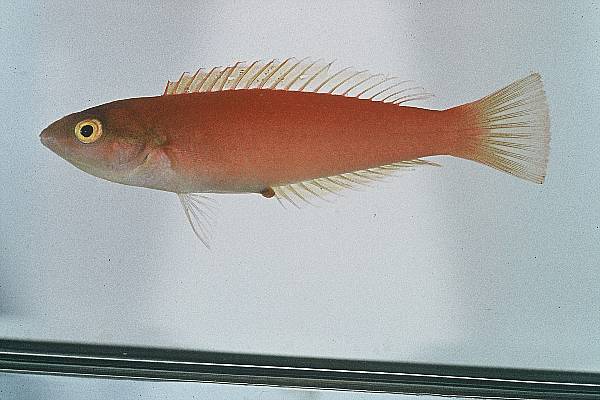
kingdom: Animalia
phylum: Chordata
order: Perciformes
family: Labridae
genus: Pseudojuloides
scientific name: Pseudojuloides cerasinus
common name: Smalltail wrasse
